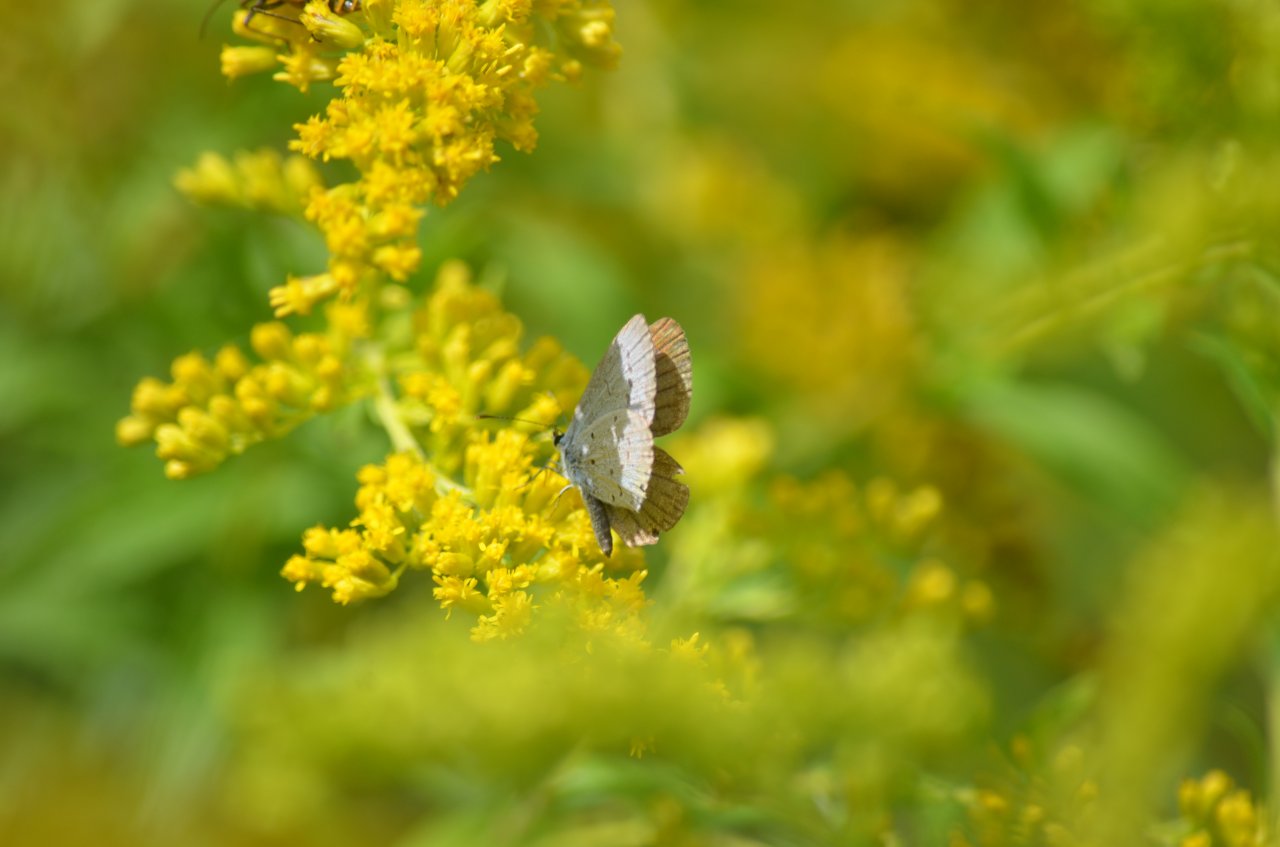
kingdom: Animalia
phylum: Arthropoda
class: Insecta
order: Lepidoptera
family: Lycaenidae
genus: Celastrina
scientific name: Celastrina
